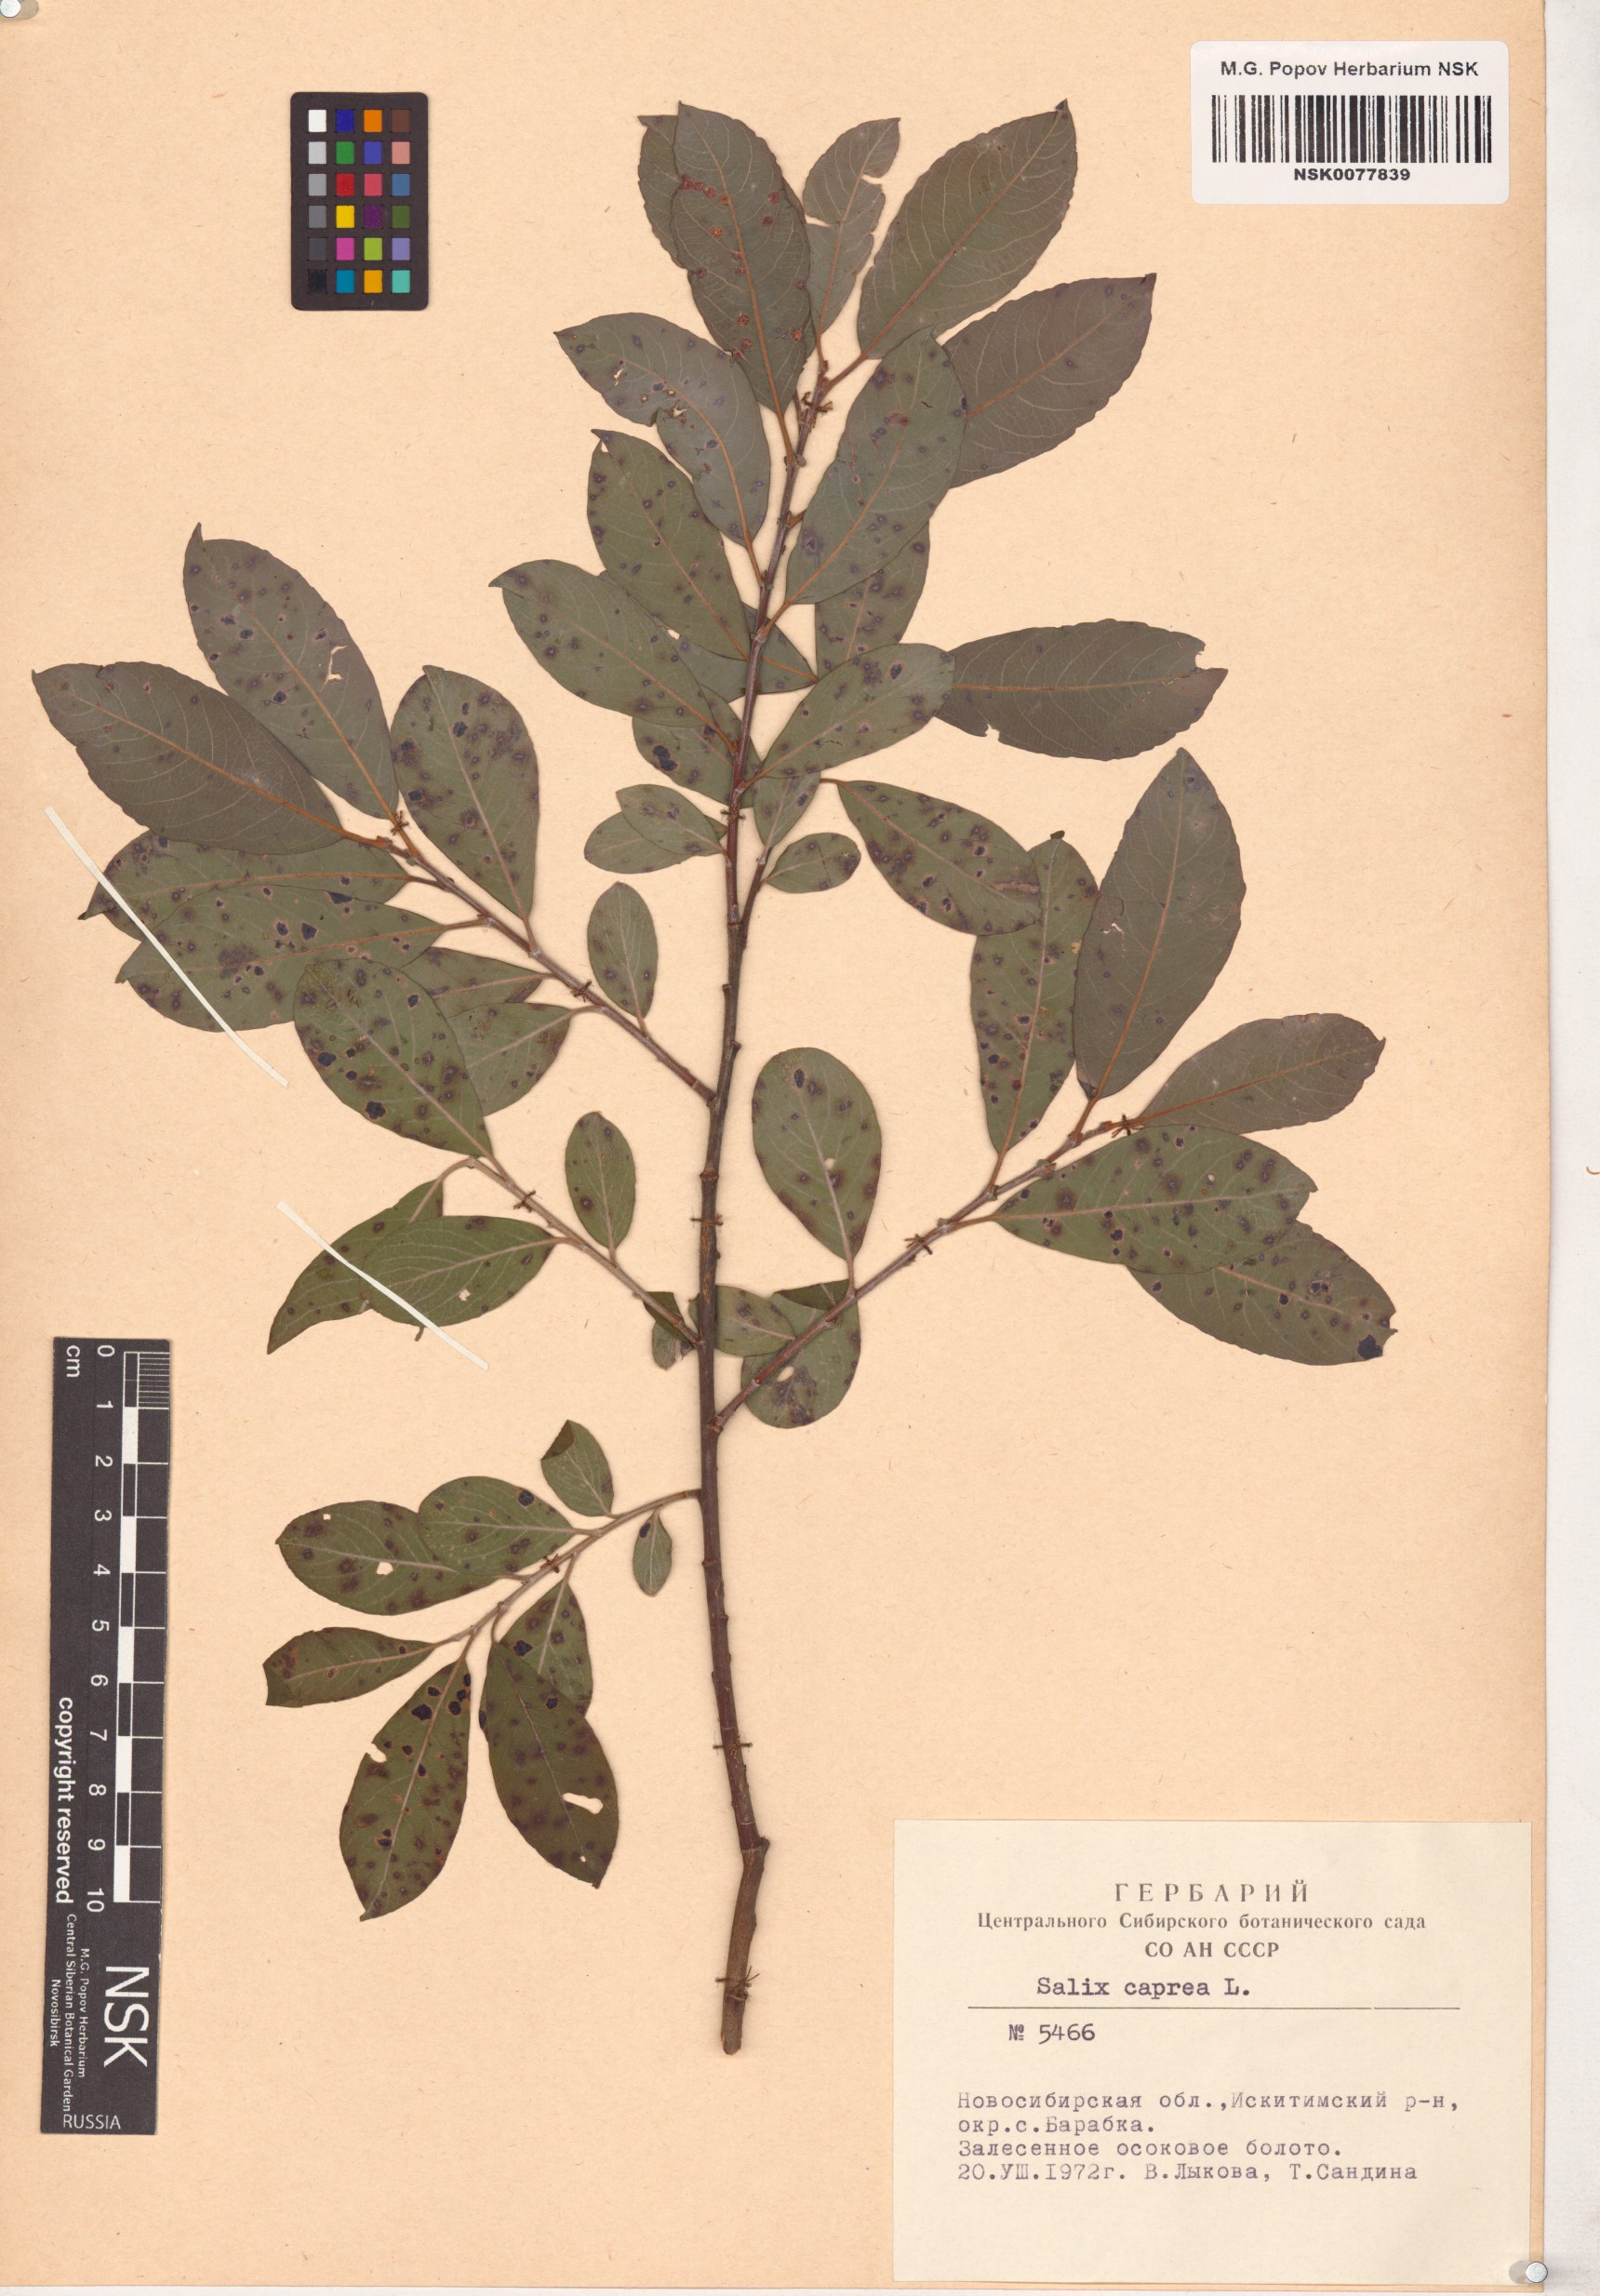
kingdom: Plantae
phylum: Tracheophyta
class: Magnoliopsida
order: Malpighiales
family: Salicaceae
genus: Salix
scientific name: Salix caprea
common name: Goat willow
